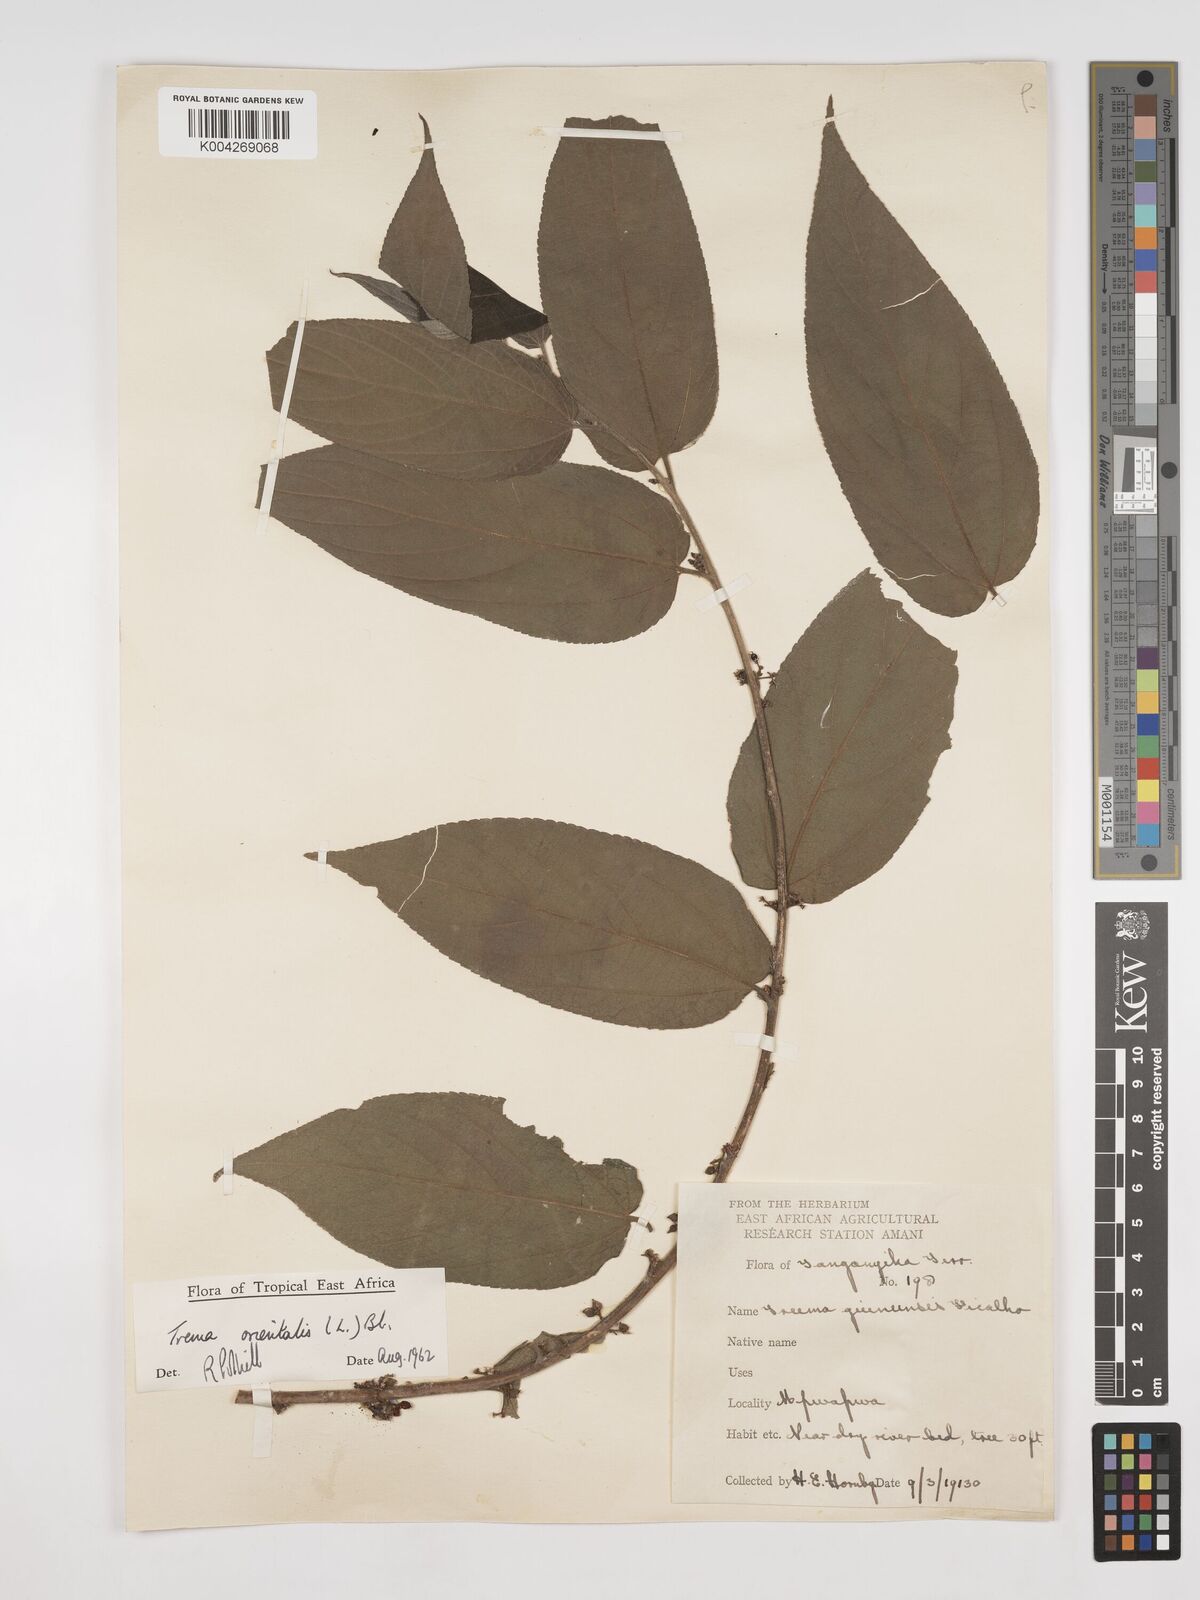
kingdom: Plantae
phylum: Tracheophyta
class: Magnoliopsida
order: Rosales
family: Cannabaceae
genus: Trema
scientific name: Trema orientale
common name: Indian charcoal tree
